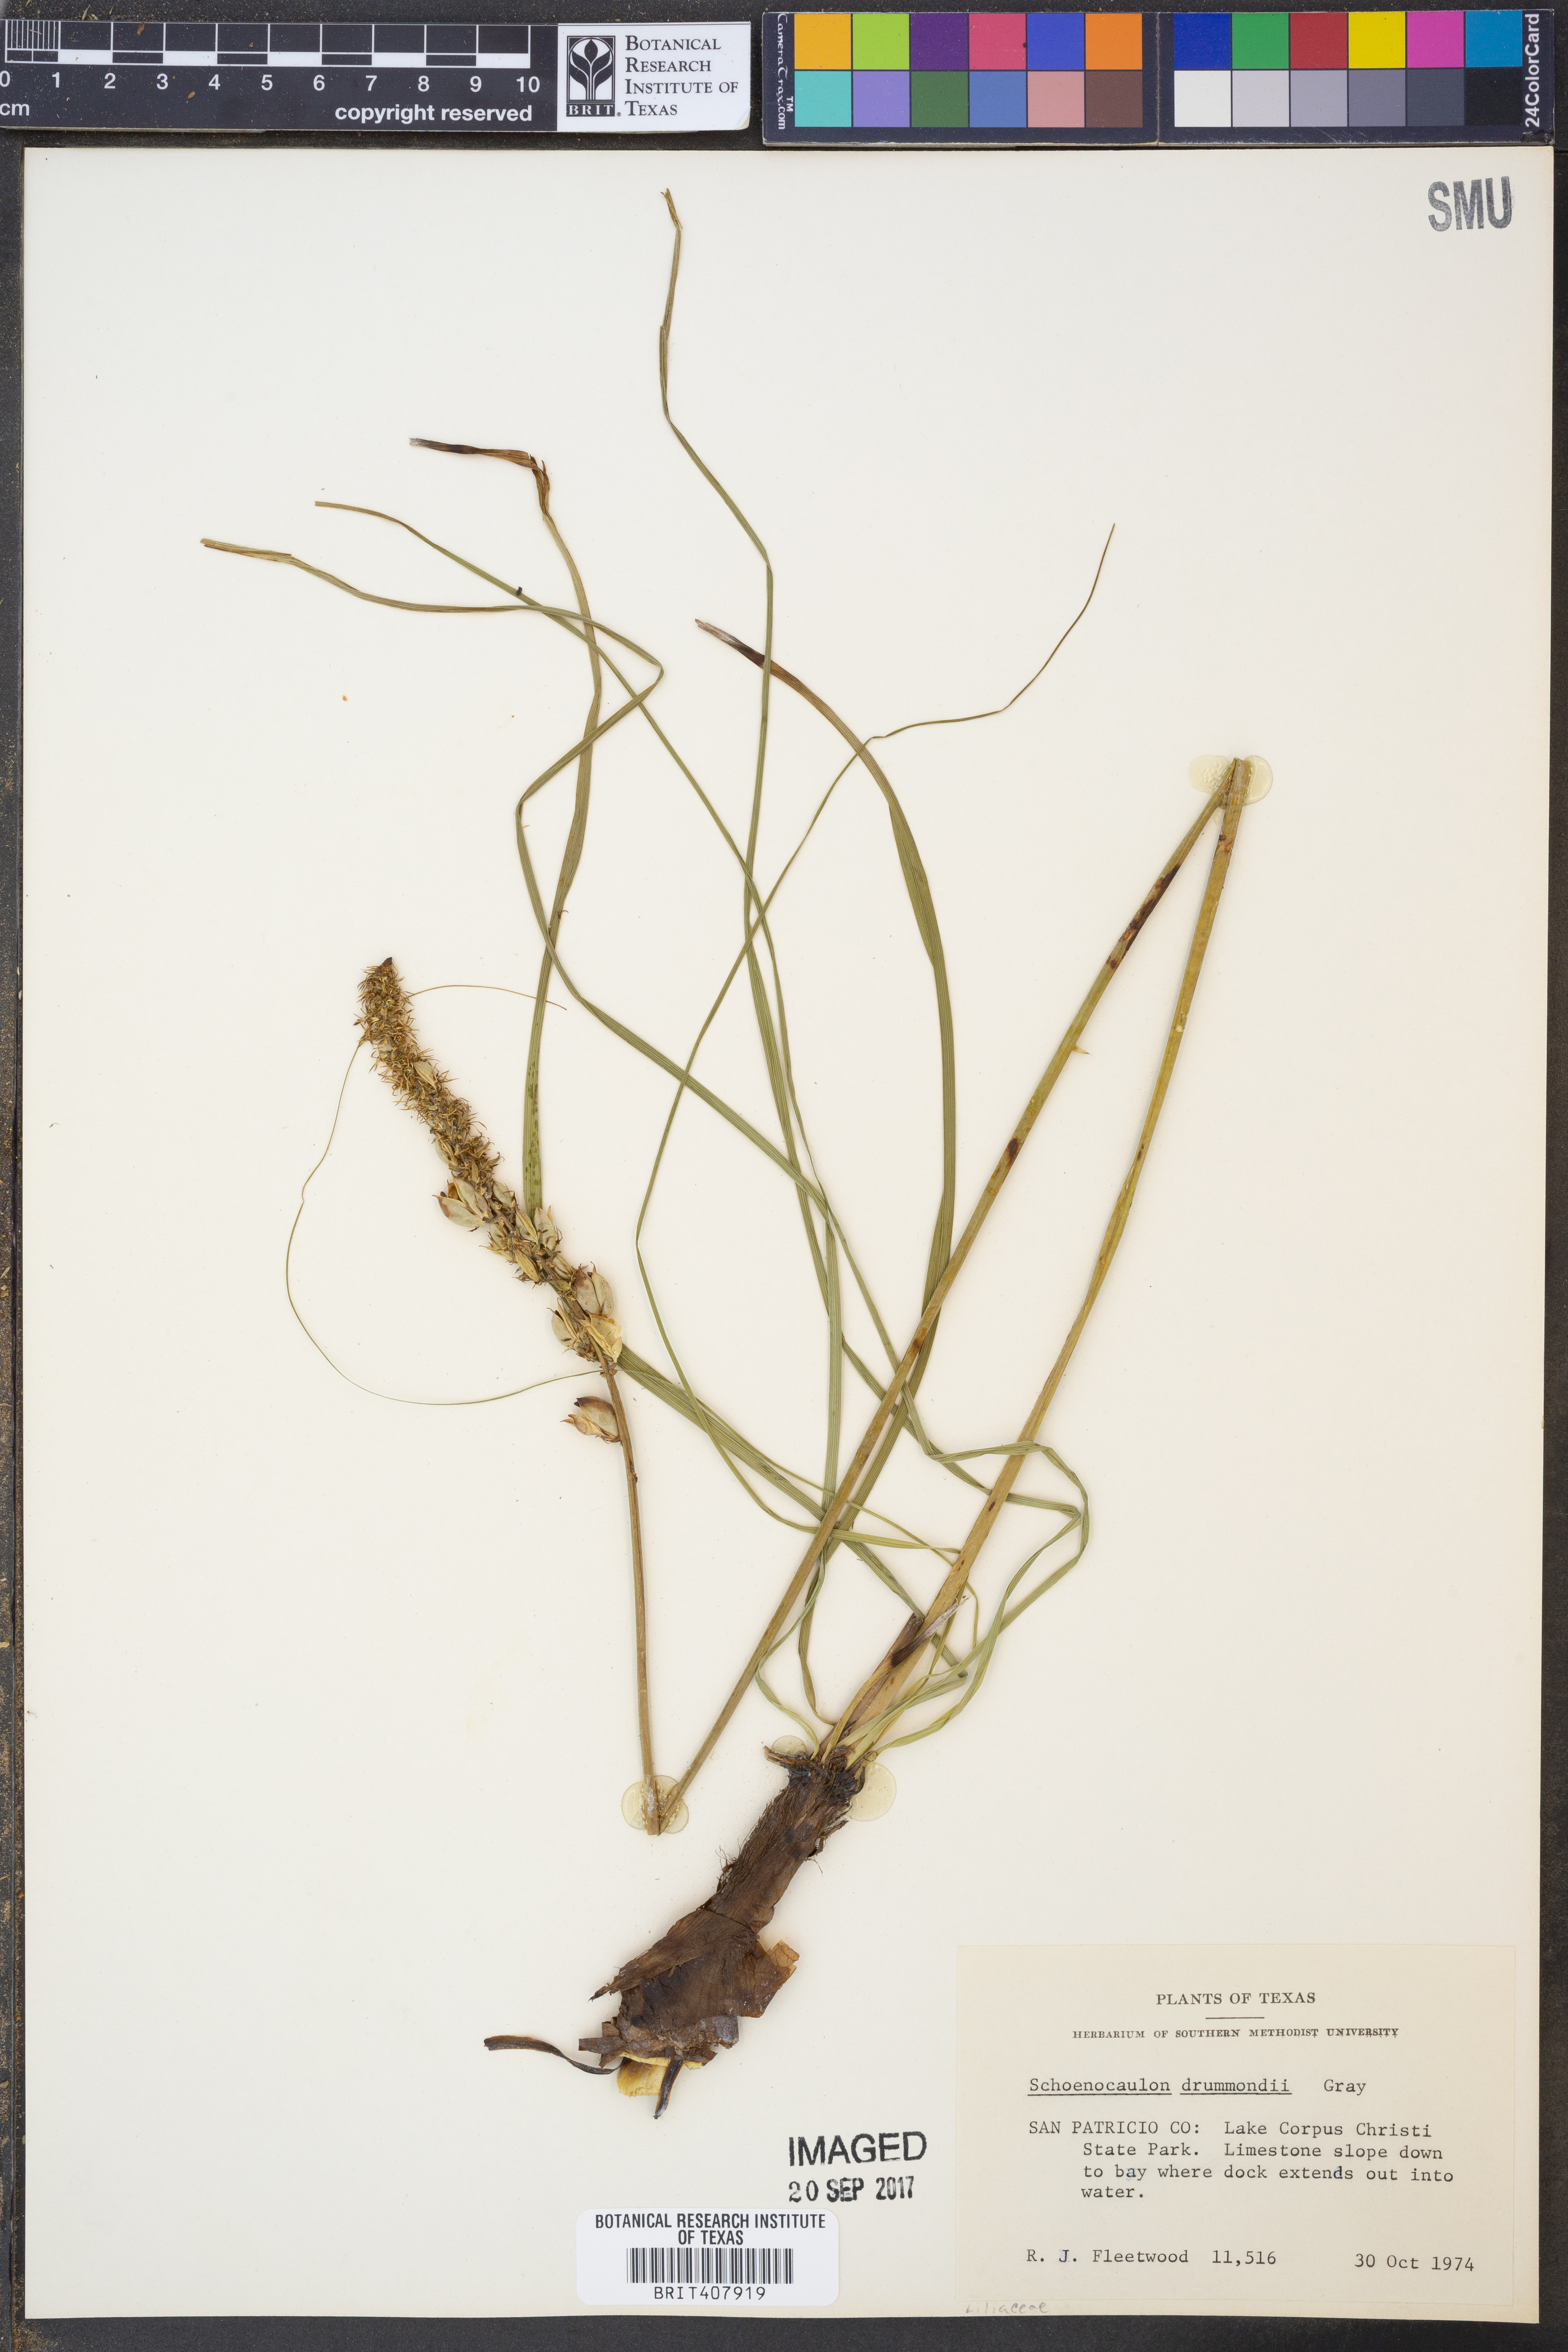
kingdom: Plantae
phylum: Tracheophyta
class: Liliopsida
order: Liliales
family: Melanthiaceae
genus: Schoenocaulon
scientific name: Schoenocaulon ghiesbreghtii
